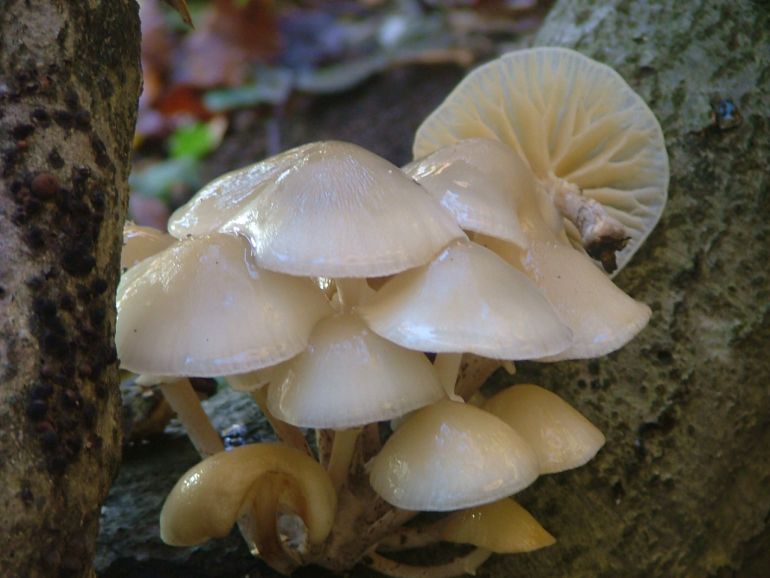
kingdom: Fungi
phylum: Basidiomycota
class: Agaricomycetes
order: Agaricales
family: Physalacriaceae
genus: Mucidula
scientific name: Mucidula mucida
